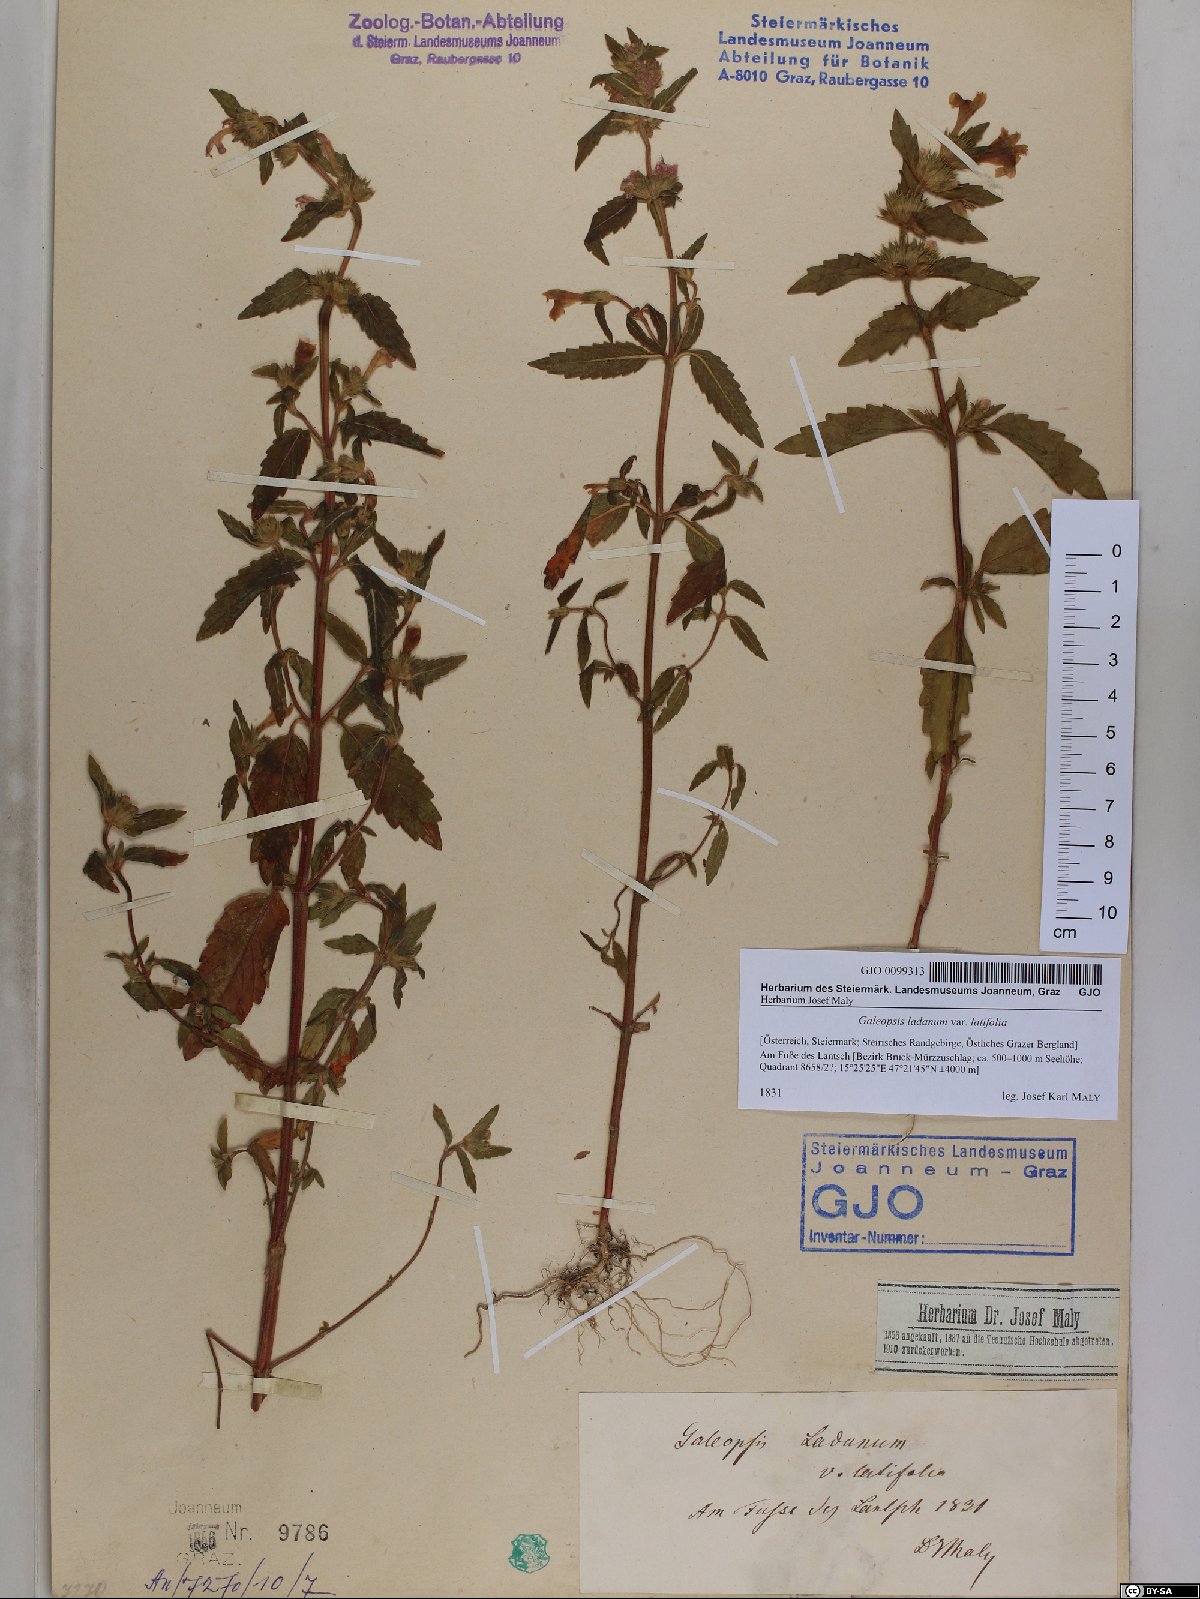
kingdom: Plantae
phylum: Tracheophyta
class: Magnoliopsida
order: Lamiales
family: Lamiaceae
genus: Galeopsis
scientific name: Galeopsis ladanum
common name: Broad-leaved hemp-nettle
